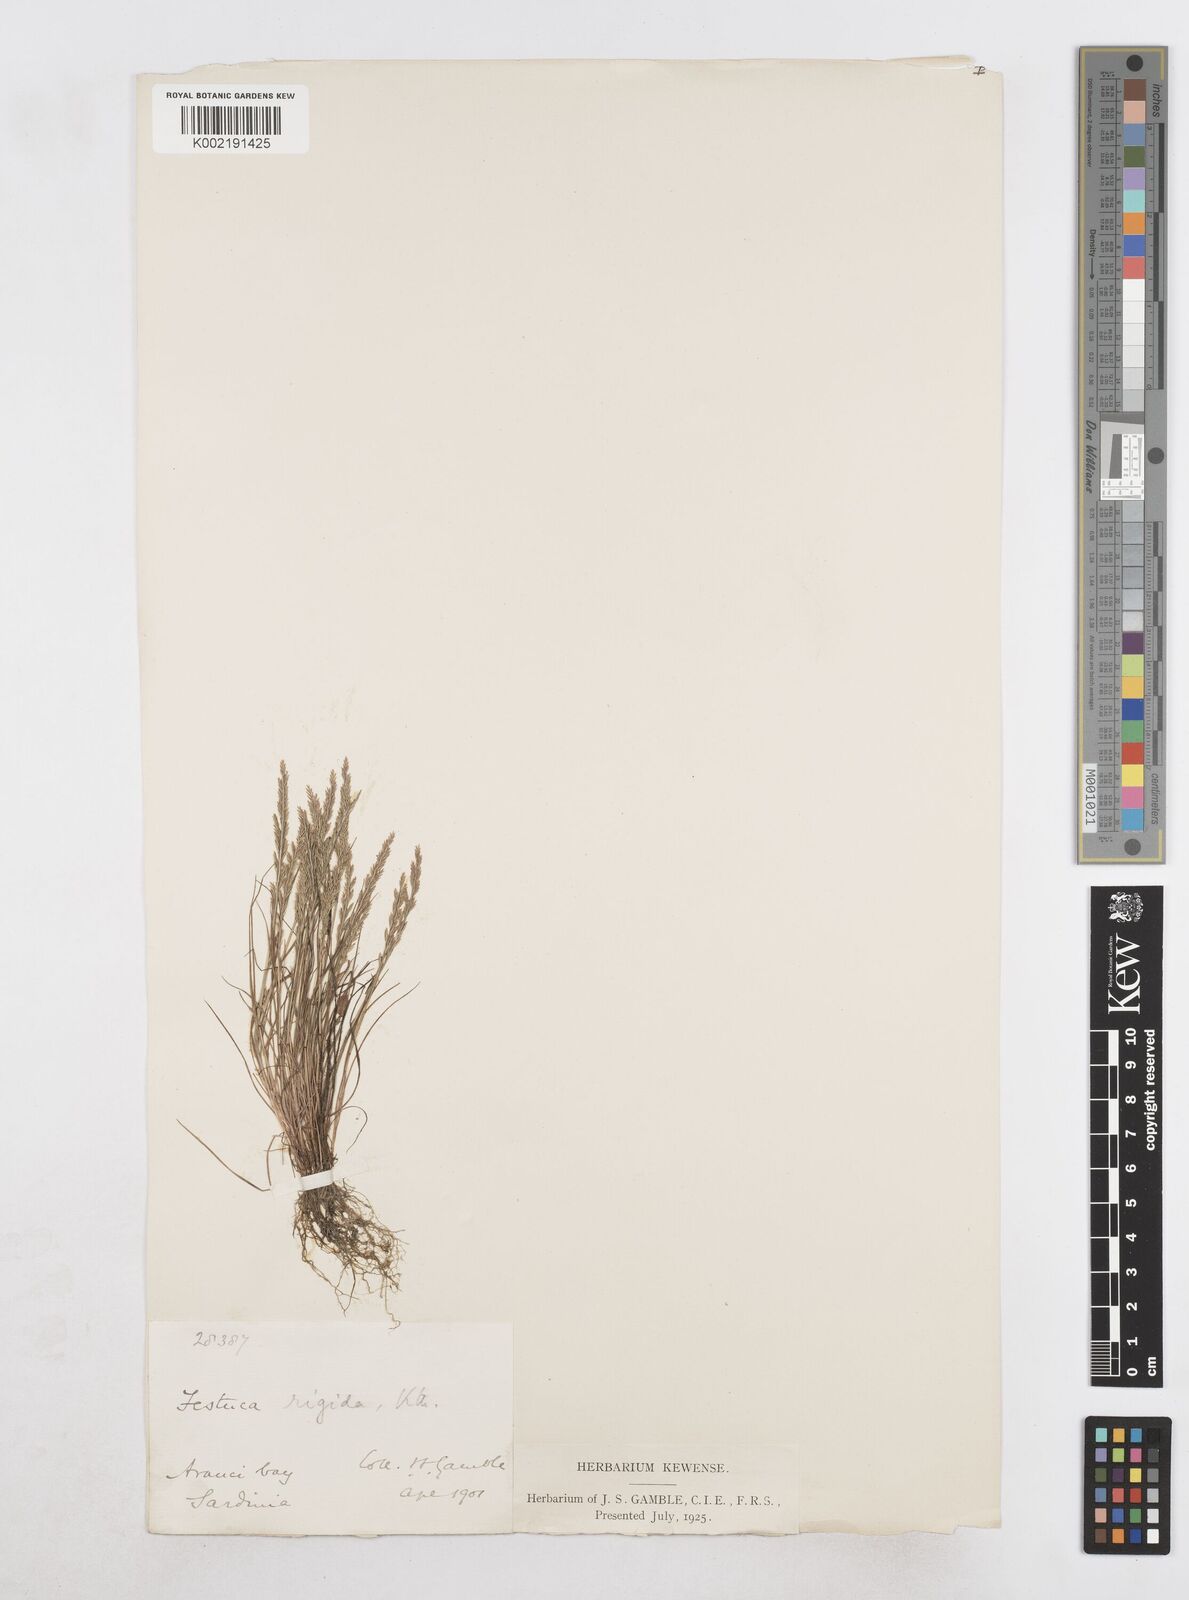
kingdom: Plantae
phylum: Tracheophyta
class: Liliopsida
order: Poales
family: Poaceae
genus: Catapodium
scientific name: Catapodium
